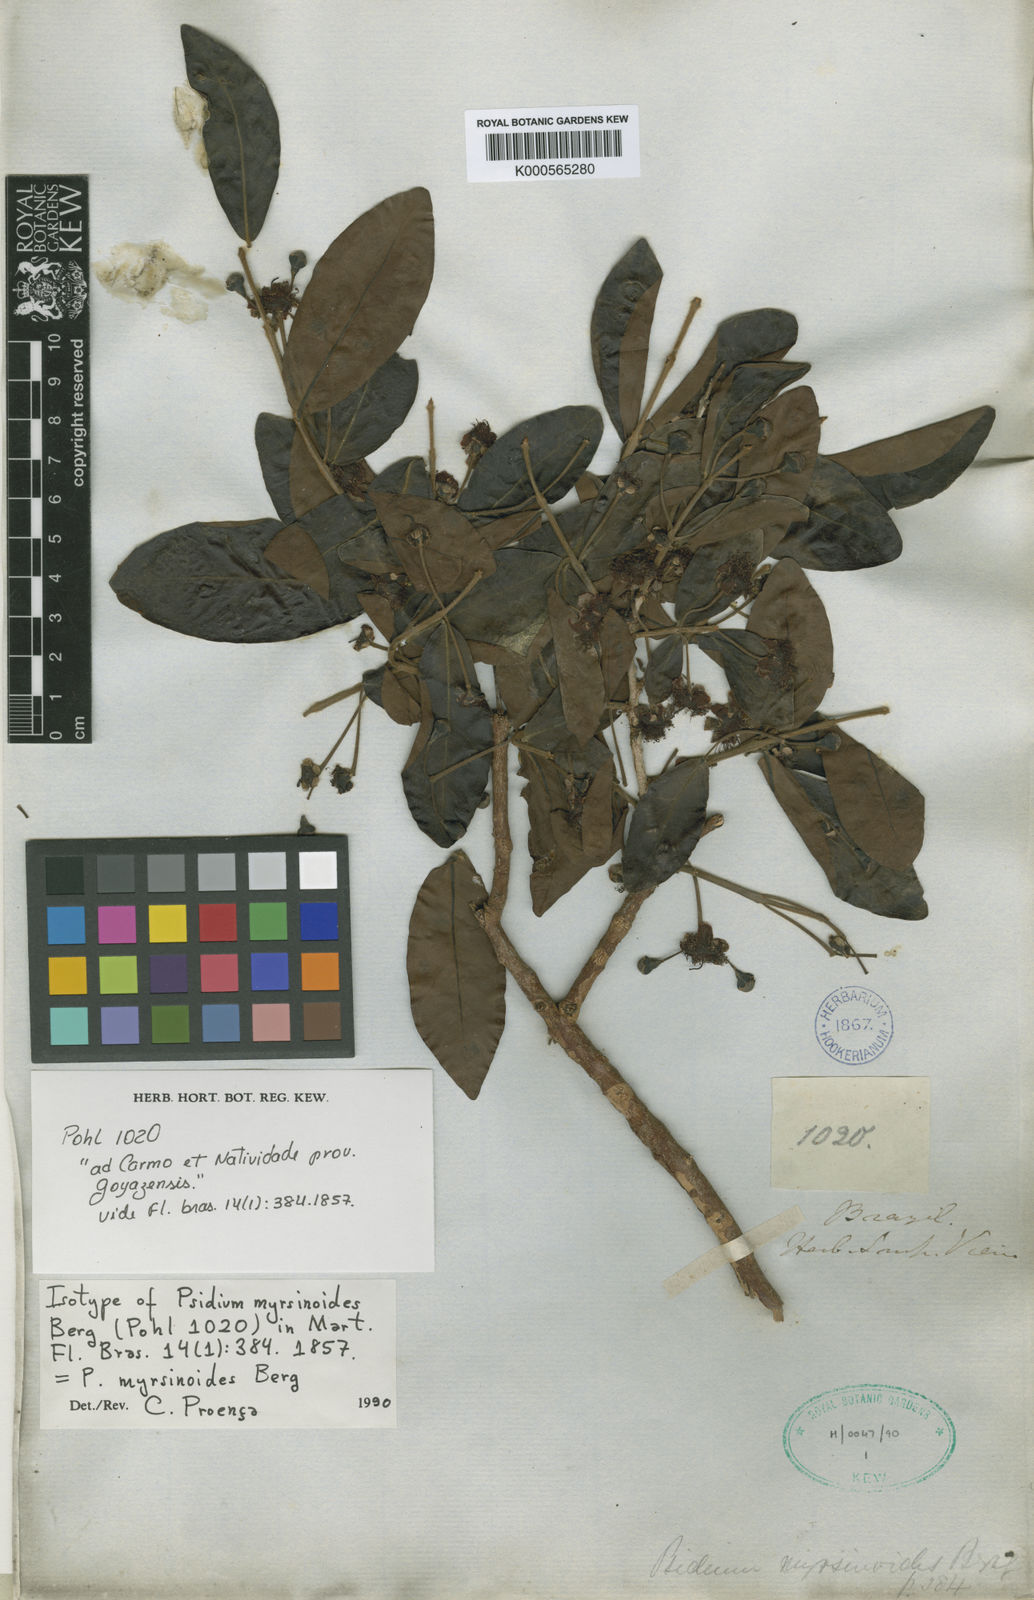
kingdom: Plantae
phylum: Tracheophyta
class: Magnoliopsida
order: Myrtales
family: Myrtaceae
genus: Psidium
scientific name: Psidium myrtoides
